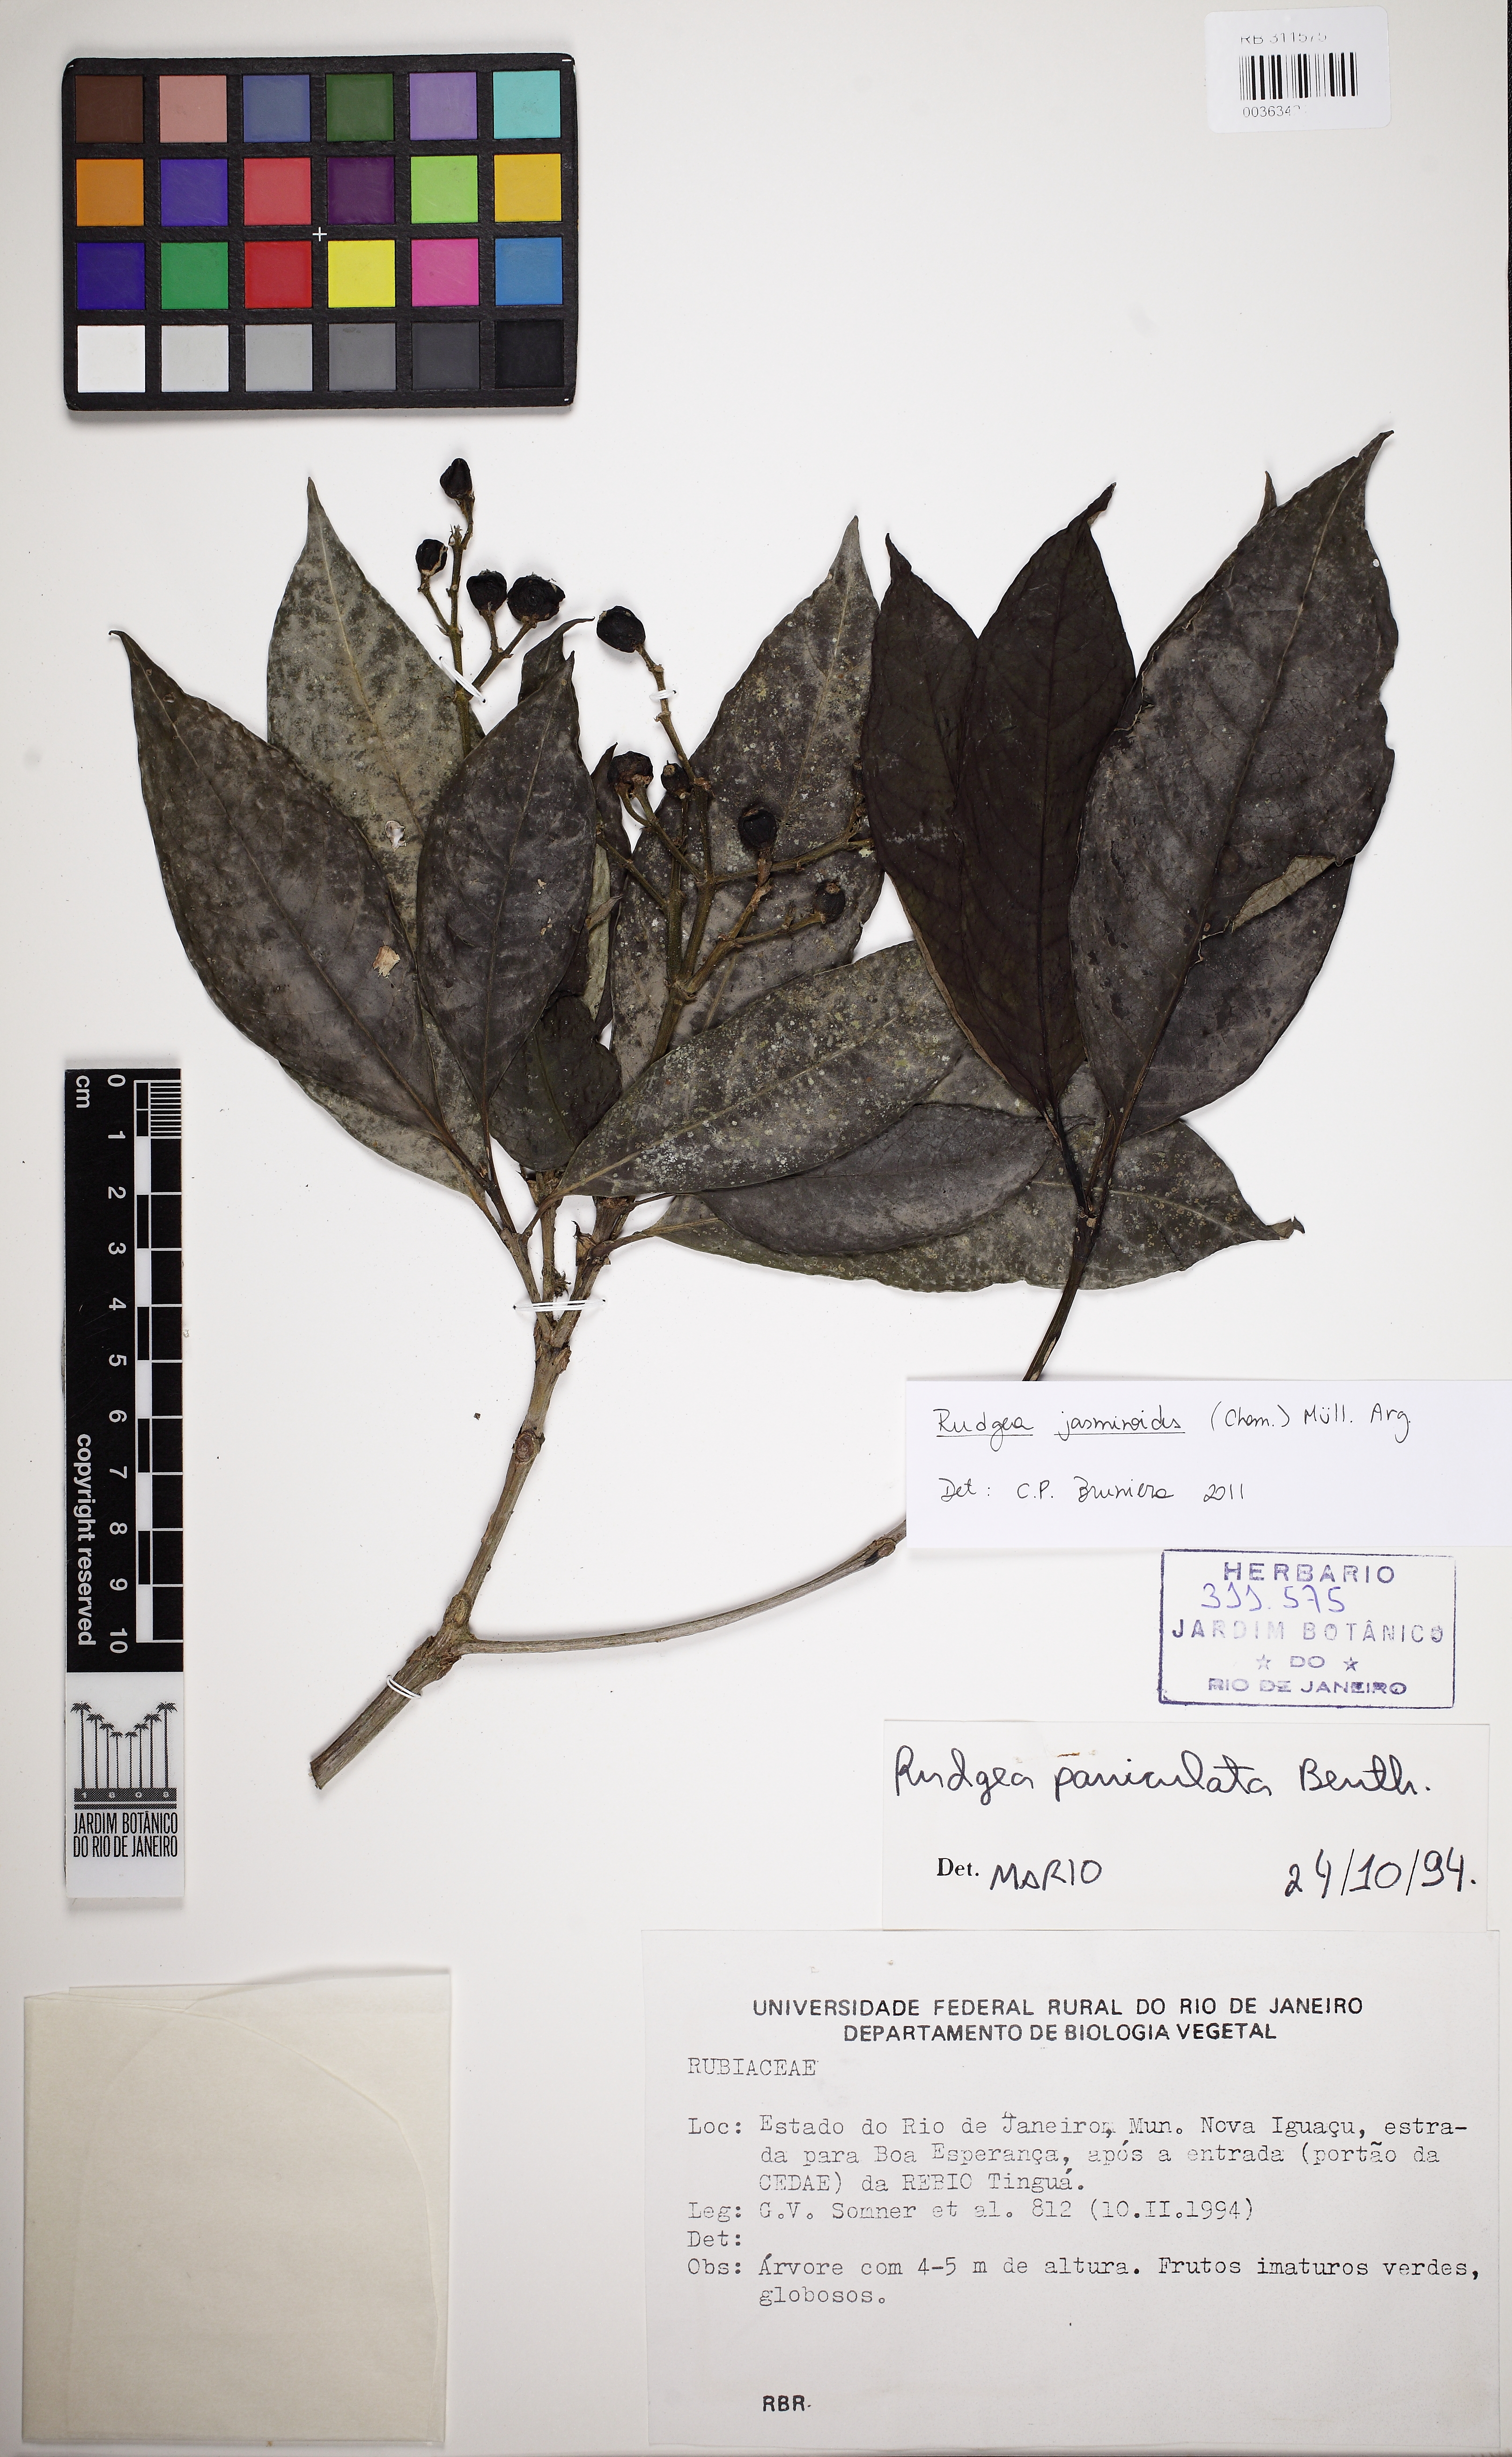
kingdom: Plantae
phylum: Tracheophyta
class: Magnoliopsida
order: Gentianales
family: Rubiaceae
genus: Rudgea
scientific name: Rudgea jasminoides
